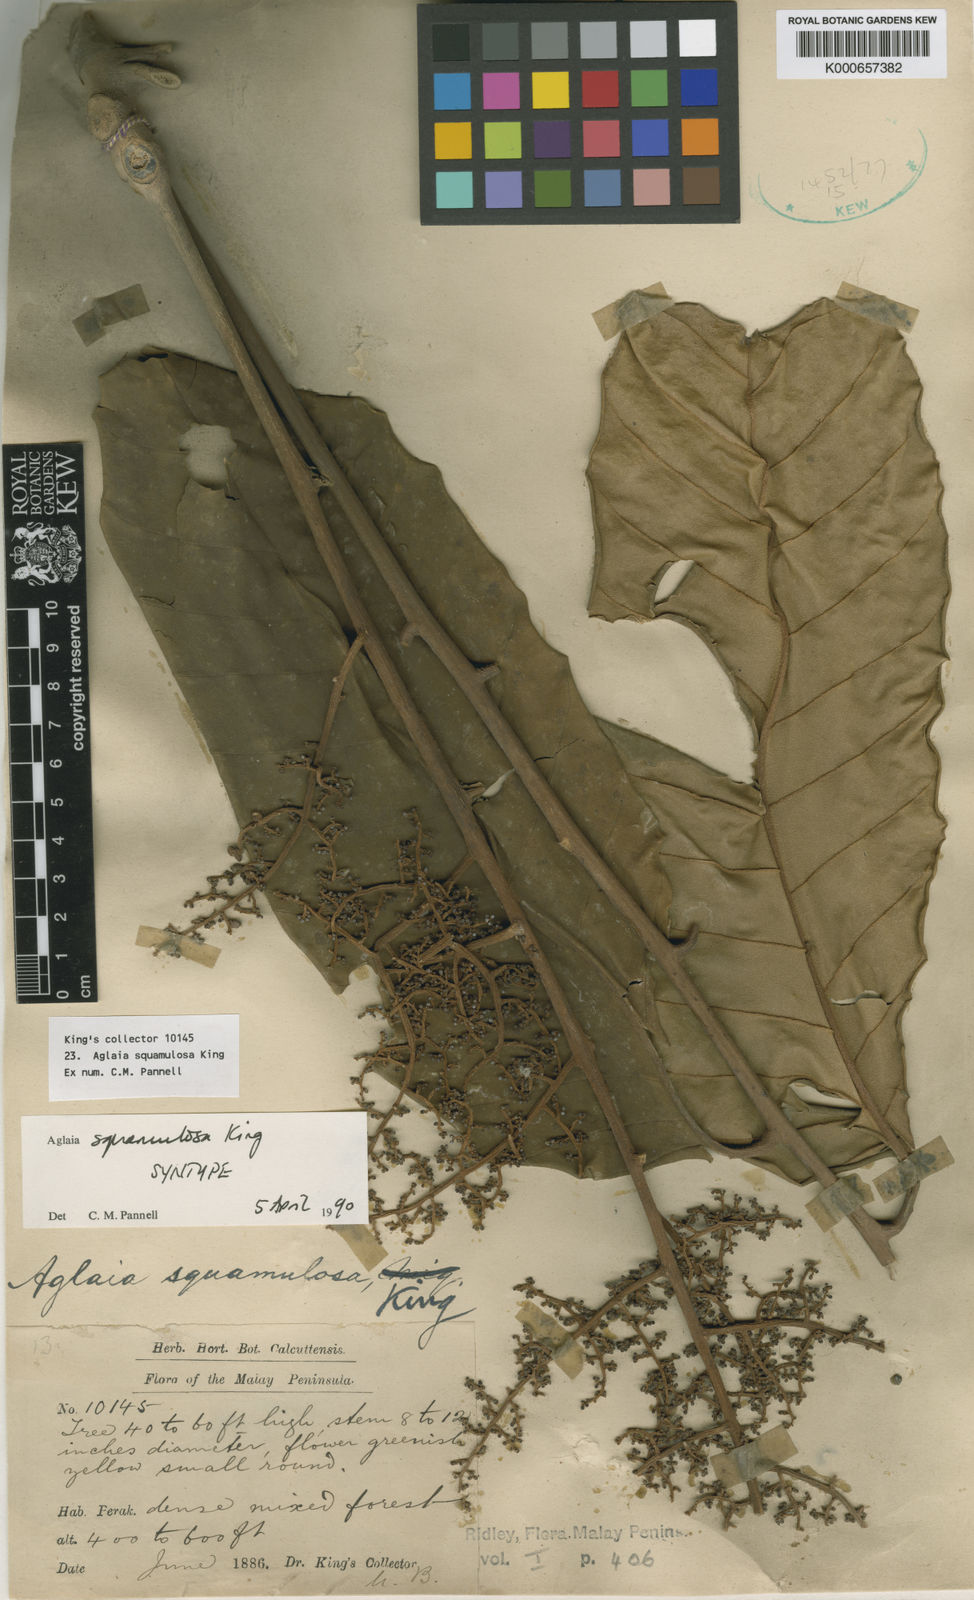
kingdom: Plantae
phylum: Tracheophyta
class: Magnoliopsida
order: Sapindales
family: Meliaceae
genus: Aglaia
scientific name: Aglaia squamulosa
